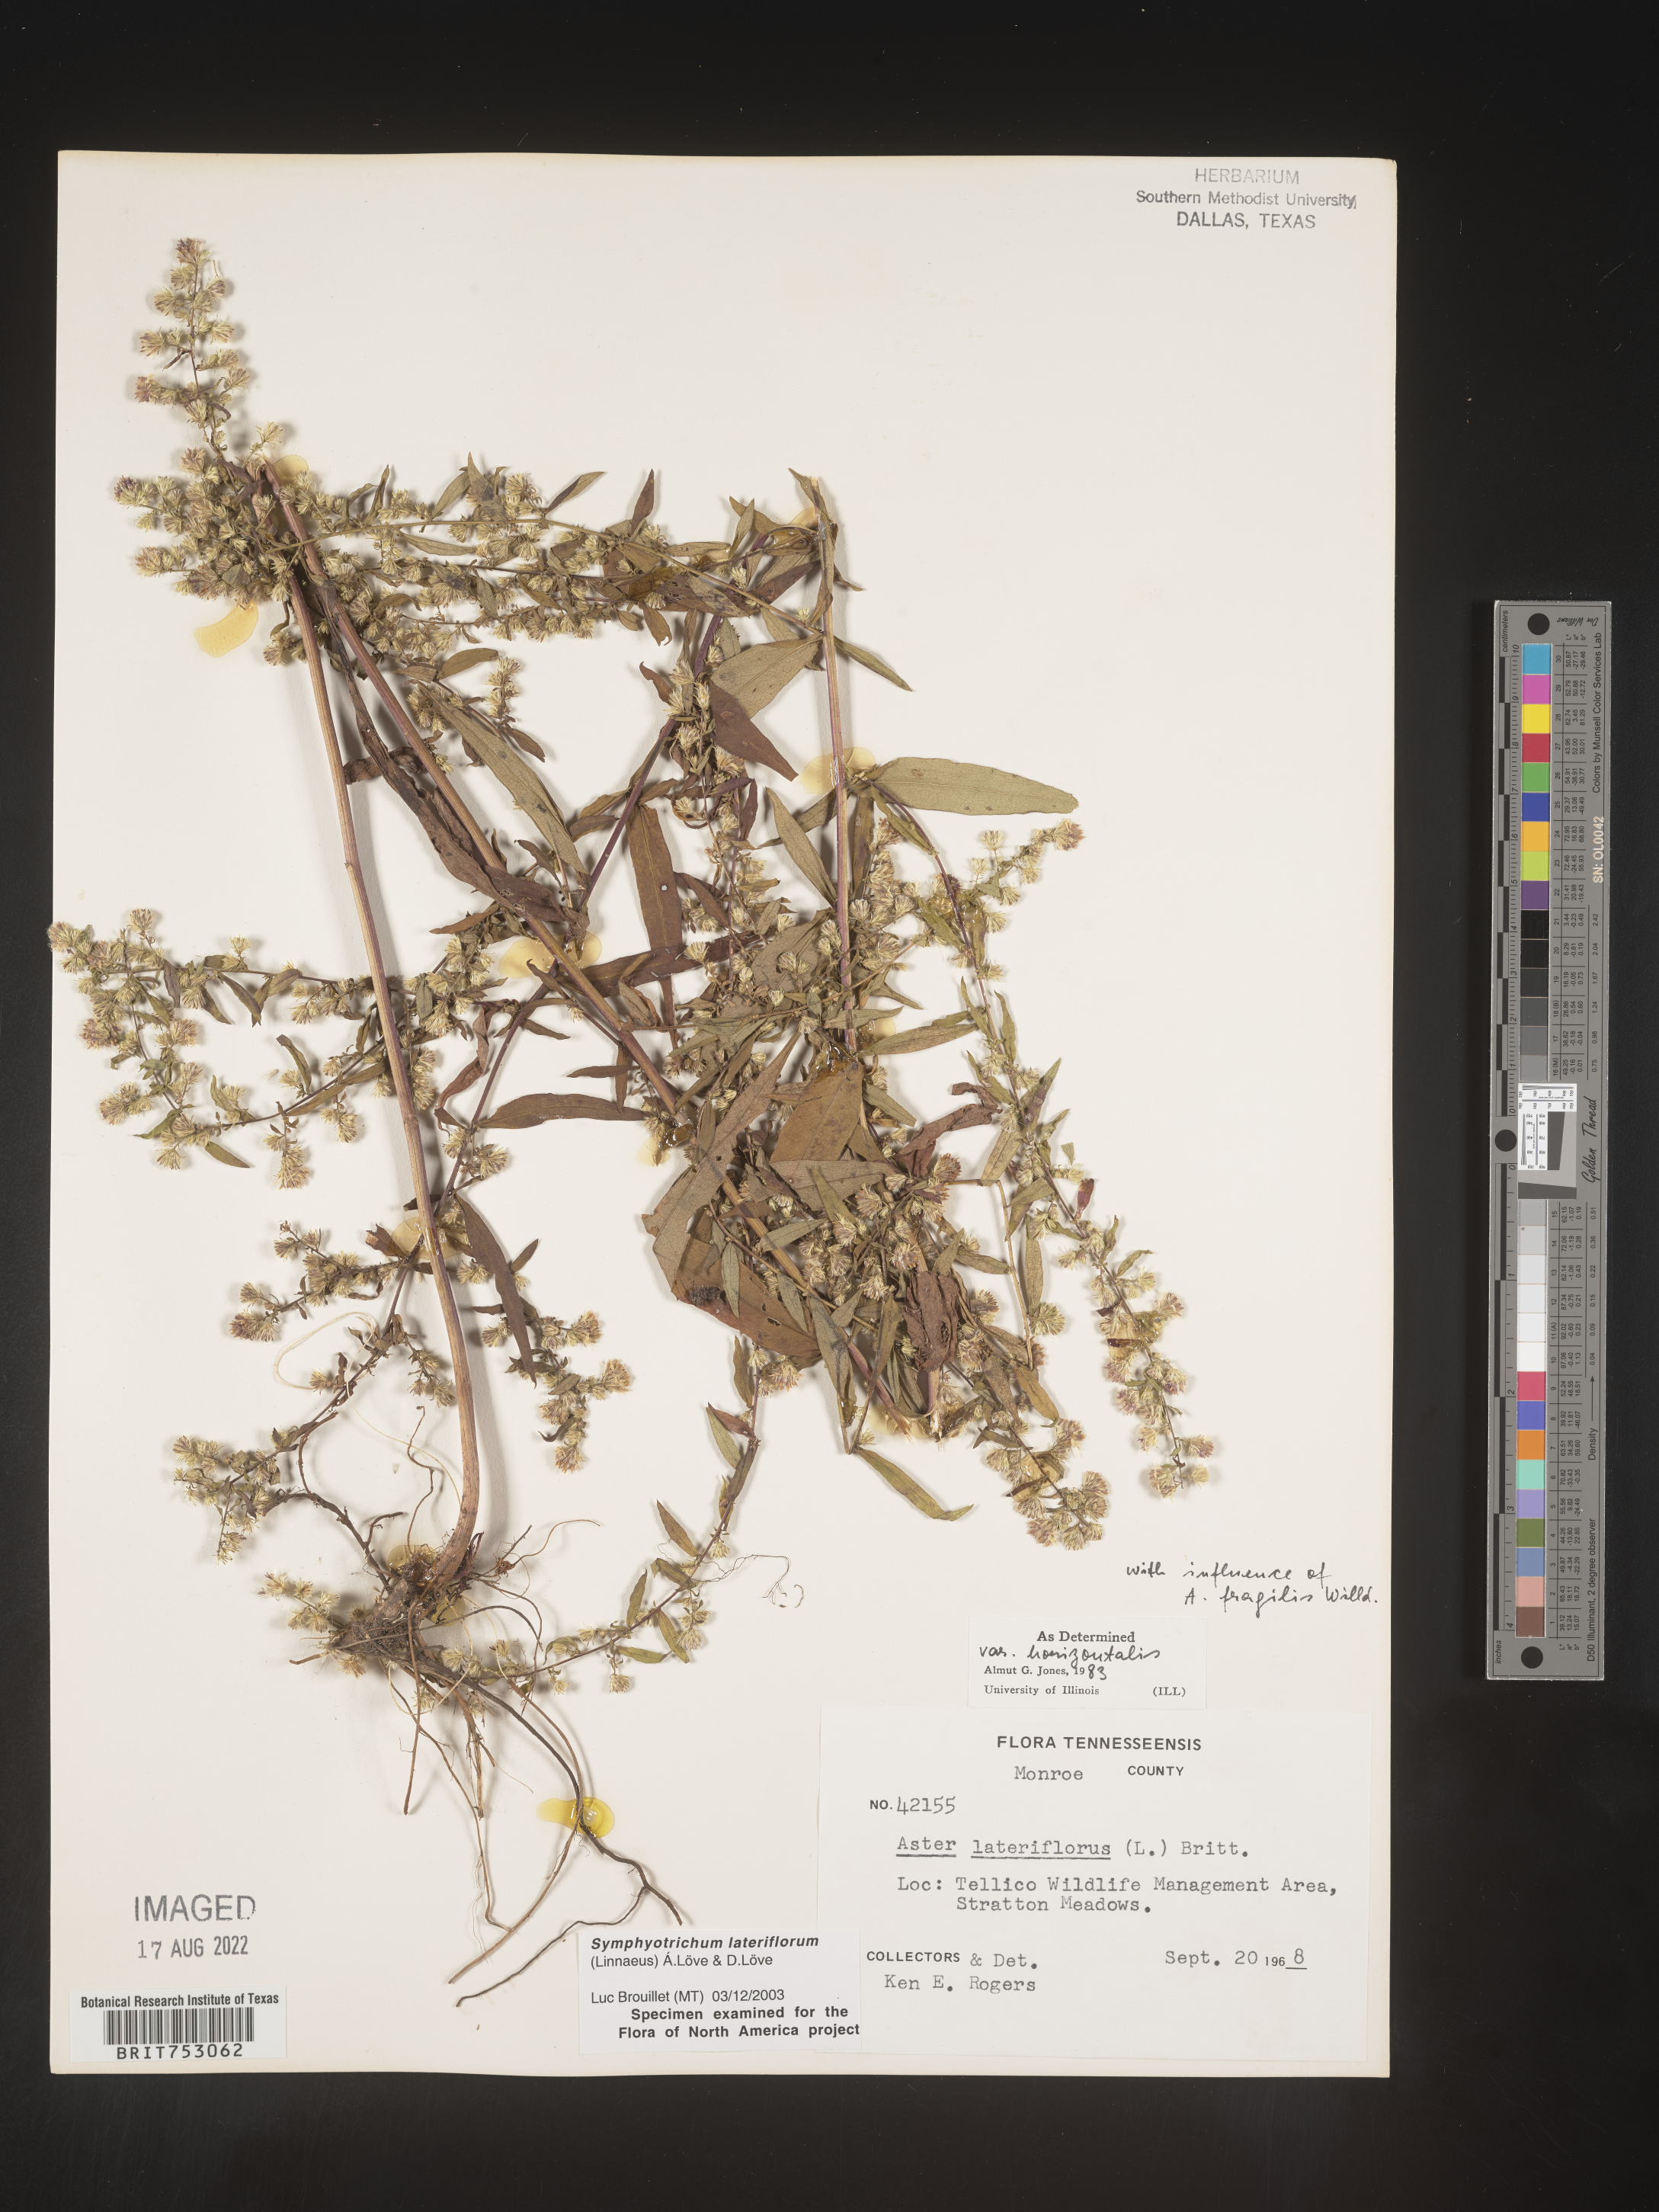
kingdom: Plantae
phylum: Tracheophyta
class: Magnoliopsida
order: Asterales
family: Asteraceae
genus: Symphyotrichum
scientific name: Symphyotrichum lateriflorum
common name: Calico aster
